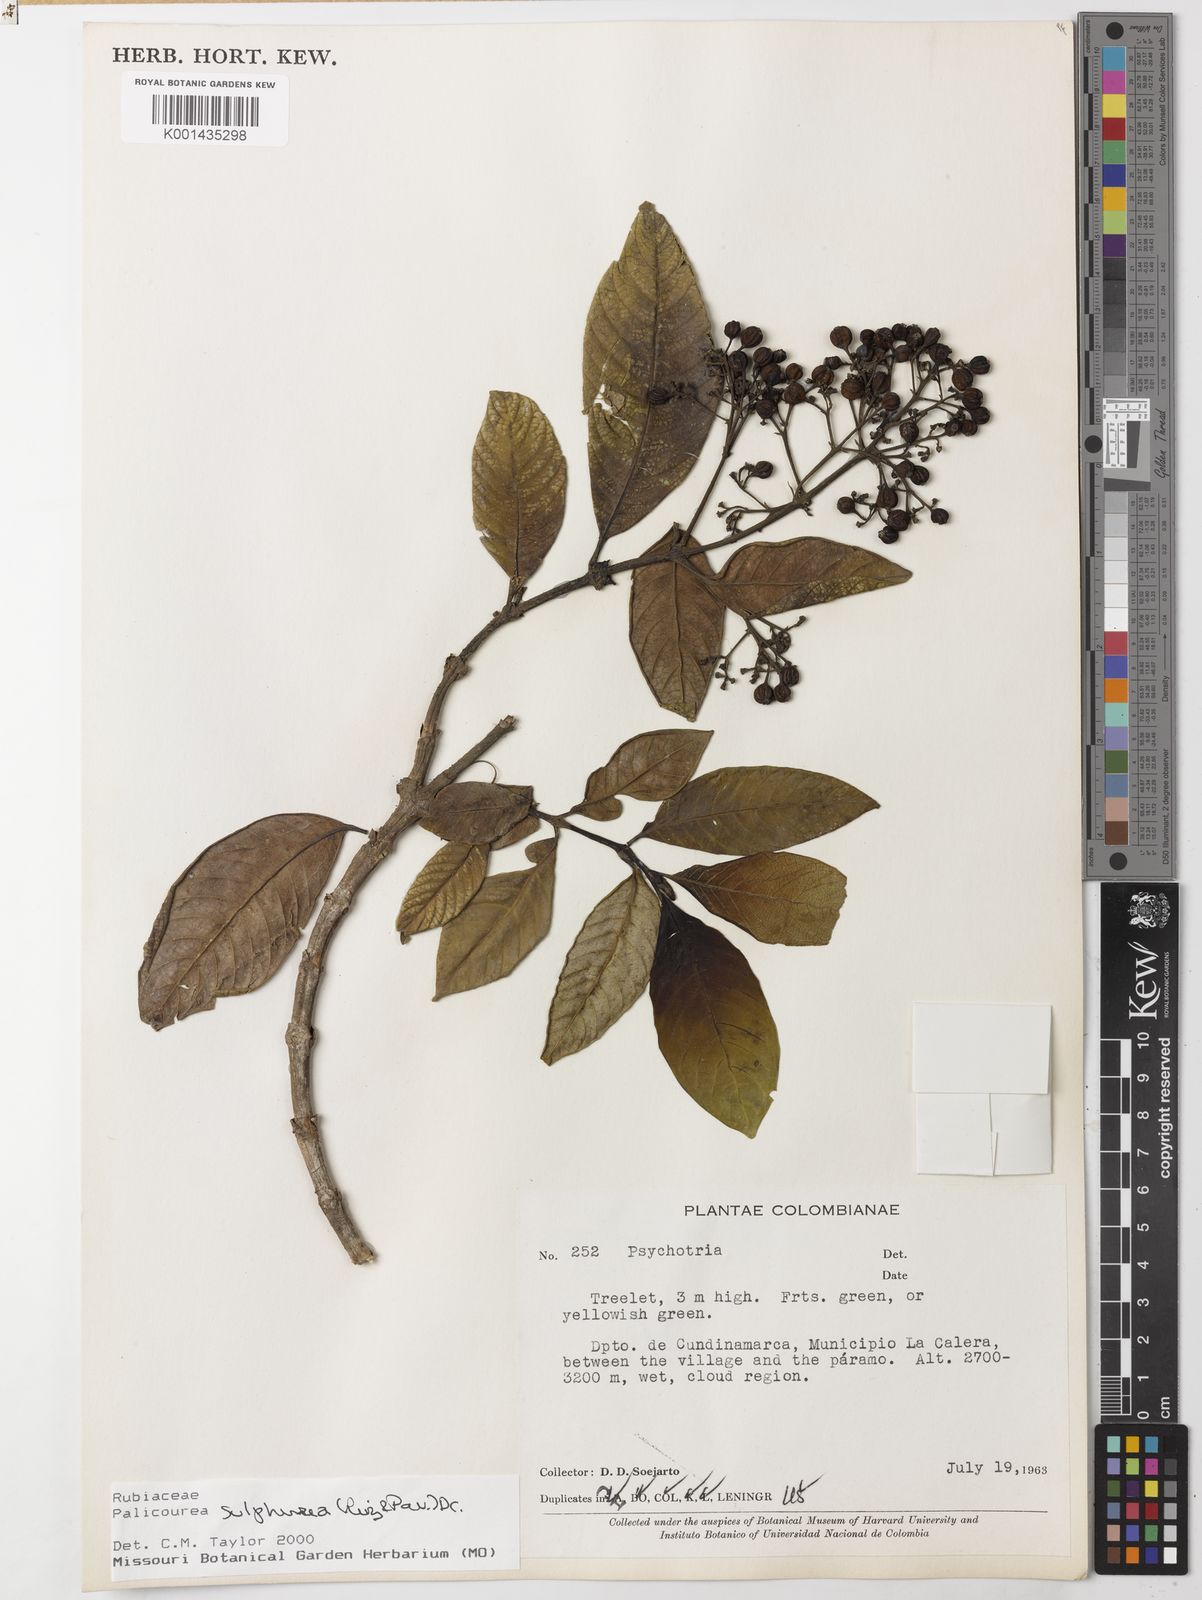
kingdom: Plantae
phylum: Tracheophyta
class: Magnoliopsida
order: Gentianales
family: Rubiaceae
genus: Palicourea
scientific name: Palicourea sulphurea
